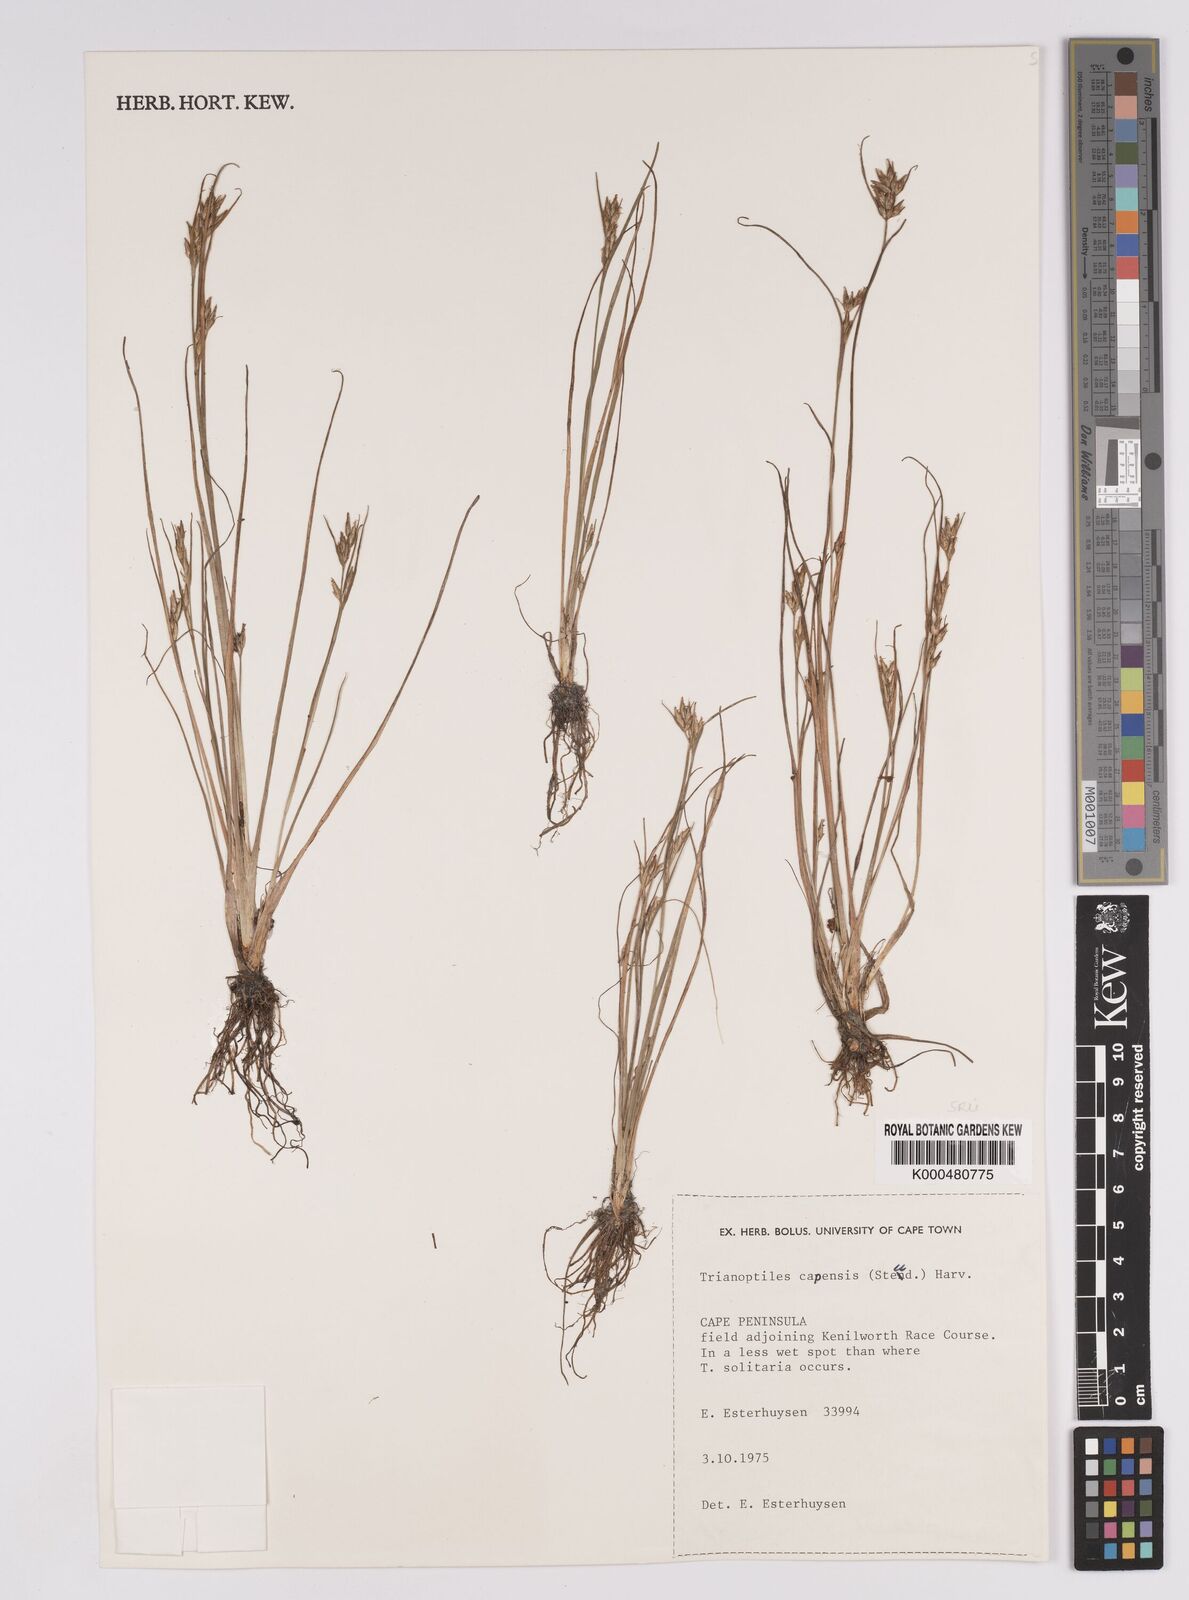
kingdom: Plantae
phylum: Tracheophyta
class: Liliopsida
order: Poales
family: Cyperaceae
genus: Trianoptiles
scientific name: Trianoptiles capensis
